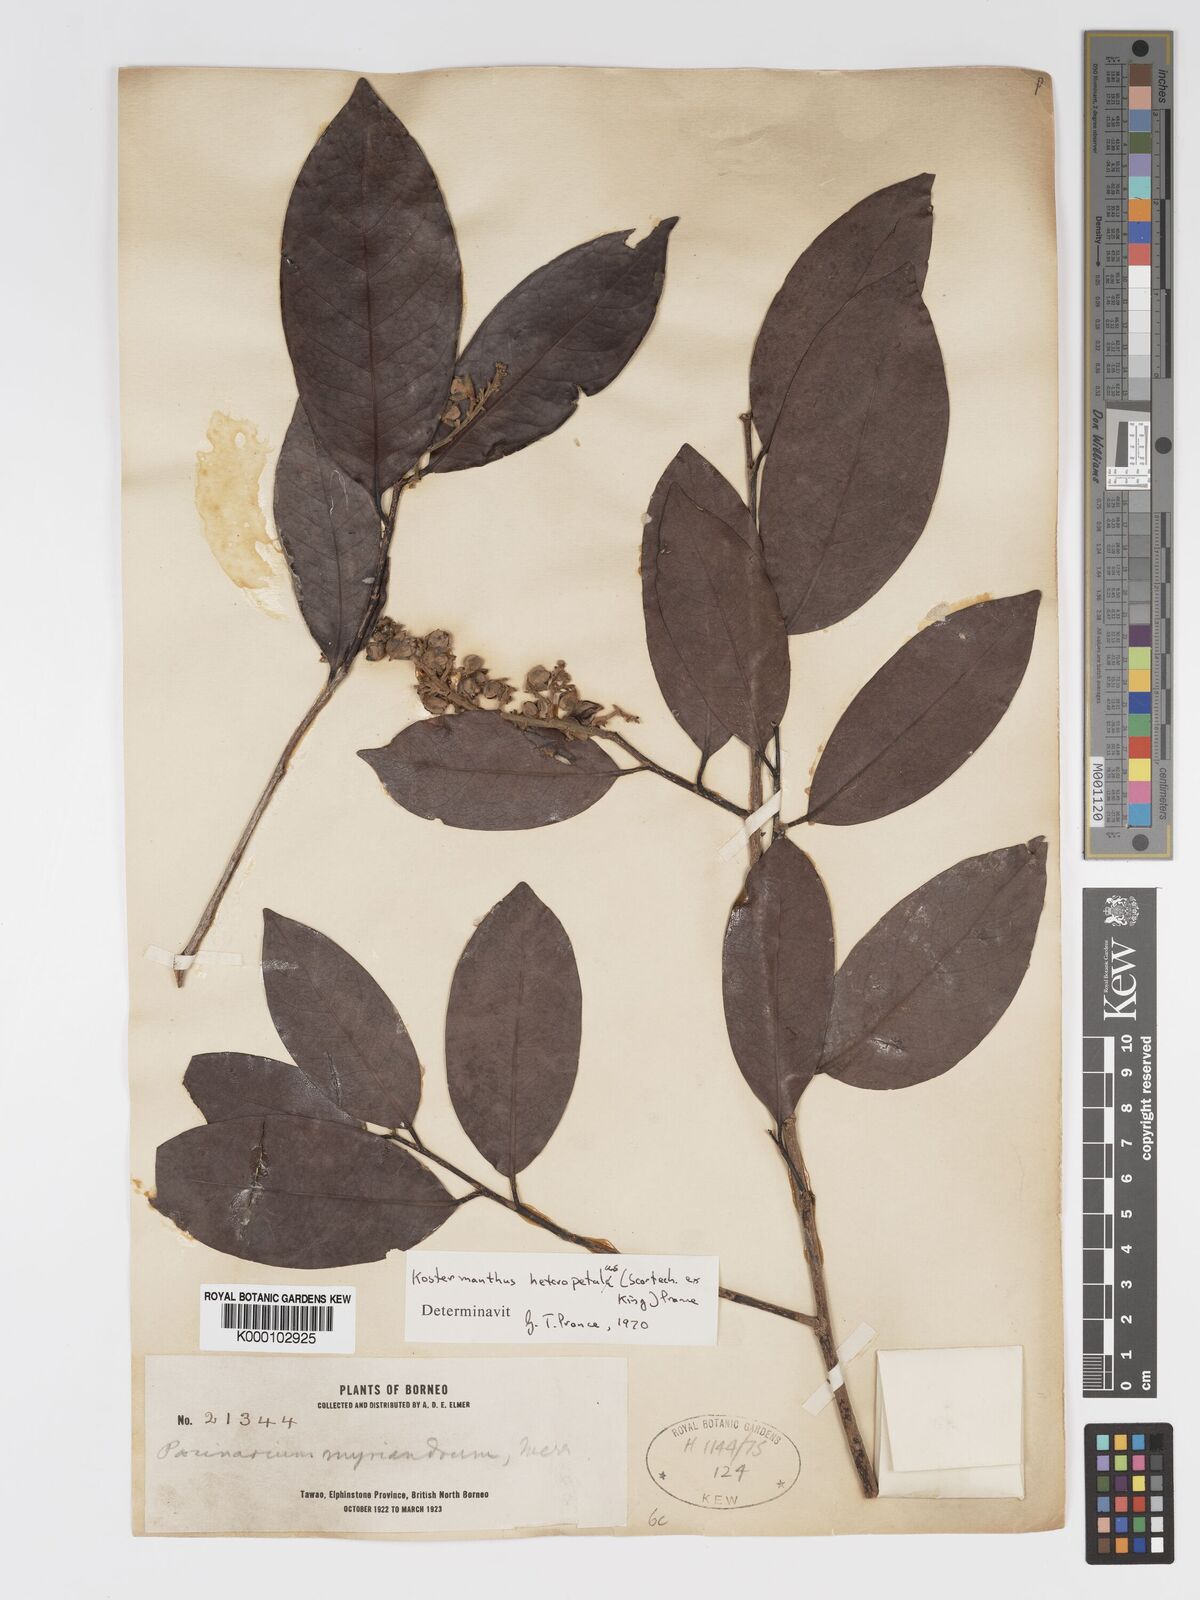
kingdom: Plantae
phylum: Tracheophyta
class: Magnoliopsida
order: Malpighiales
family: Chrysobalanaceae
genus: Kostermanthus
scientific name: Kostermanthus heteropetalus
